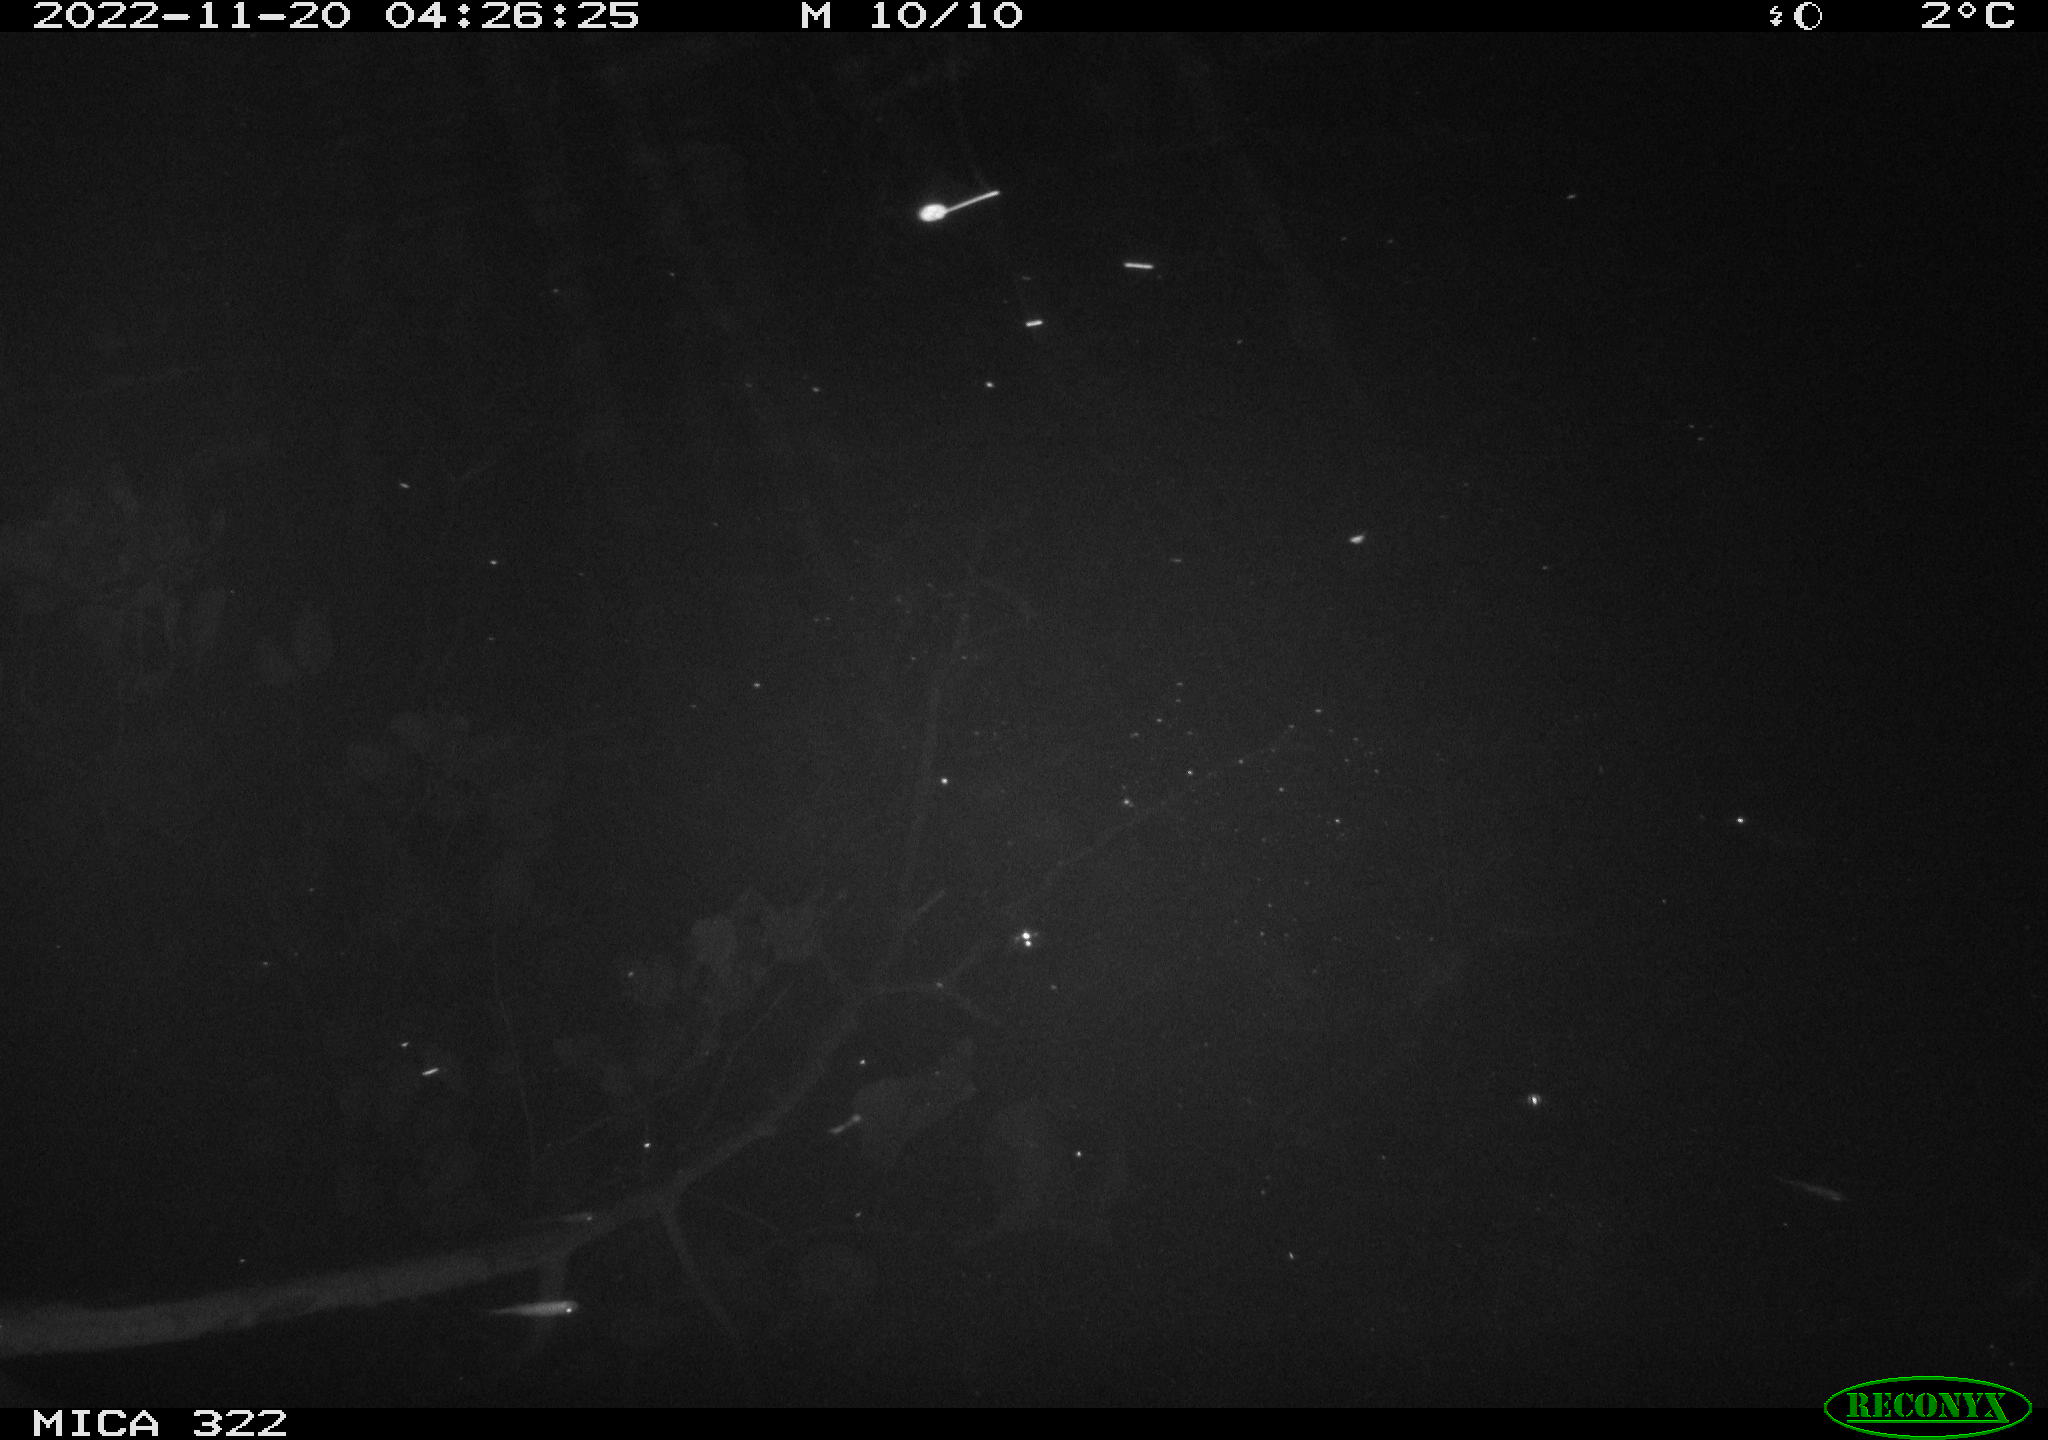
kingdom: Animalia
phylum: Chordata
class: Mammalia
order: Rodentia
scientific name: Rodentia
